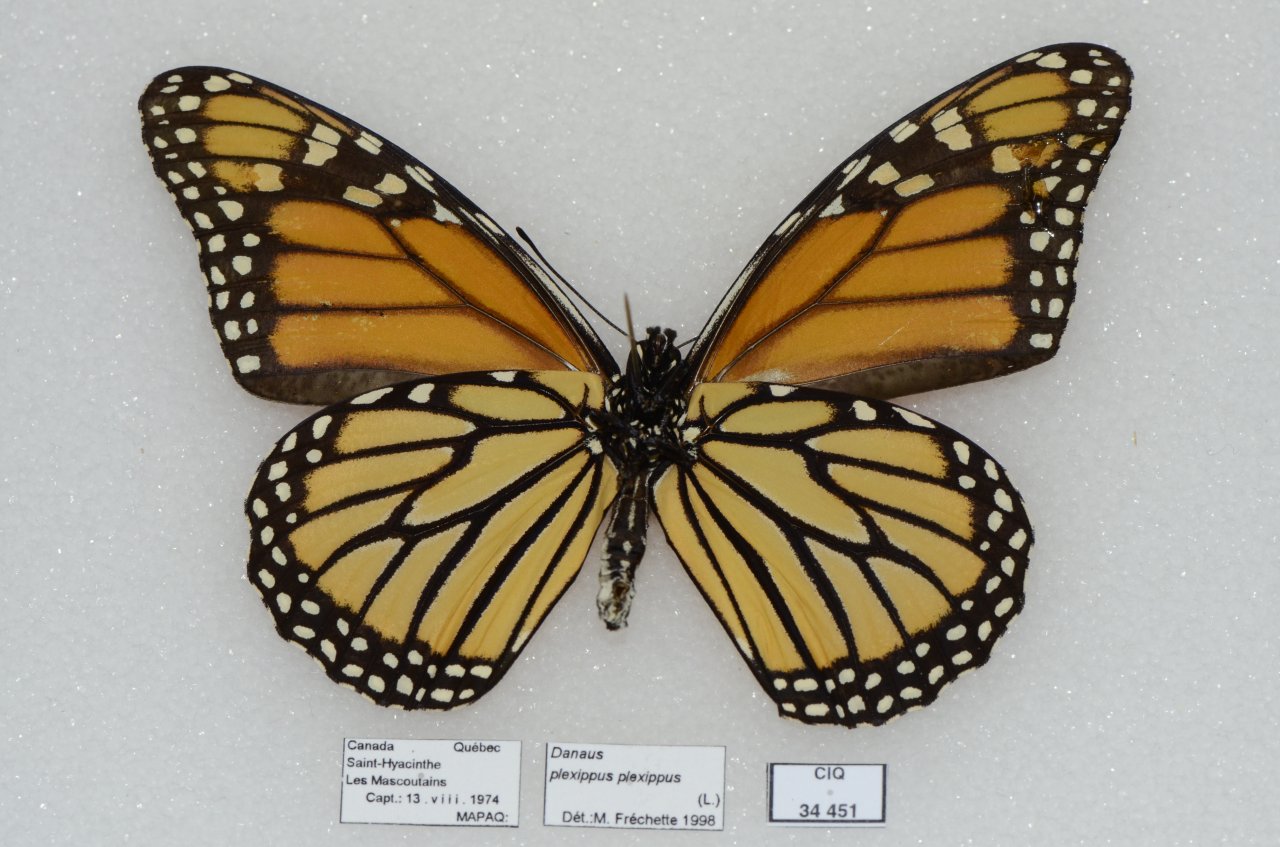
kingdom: Animalia
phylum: Arthropoda
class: Insecta
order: Lepidoptera
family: Nymphalidae
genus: Danaus
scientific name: Danaus plexippus
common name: Monarch
